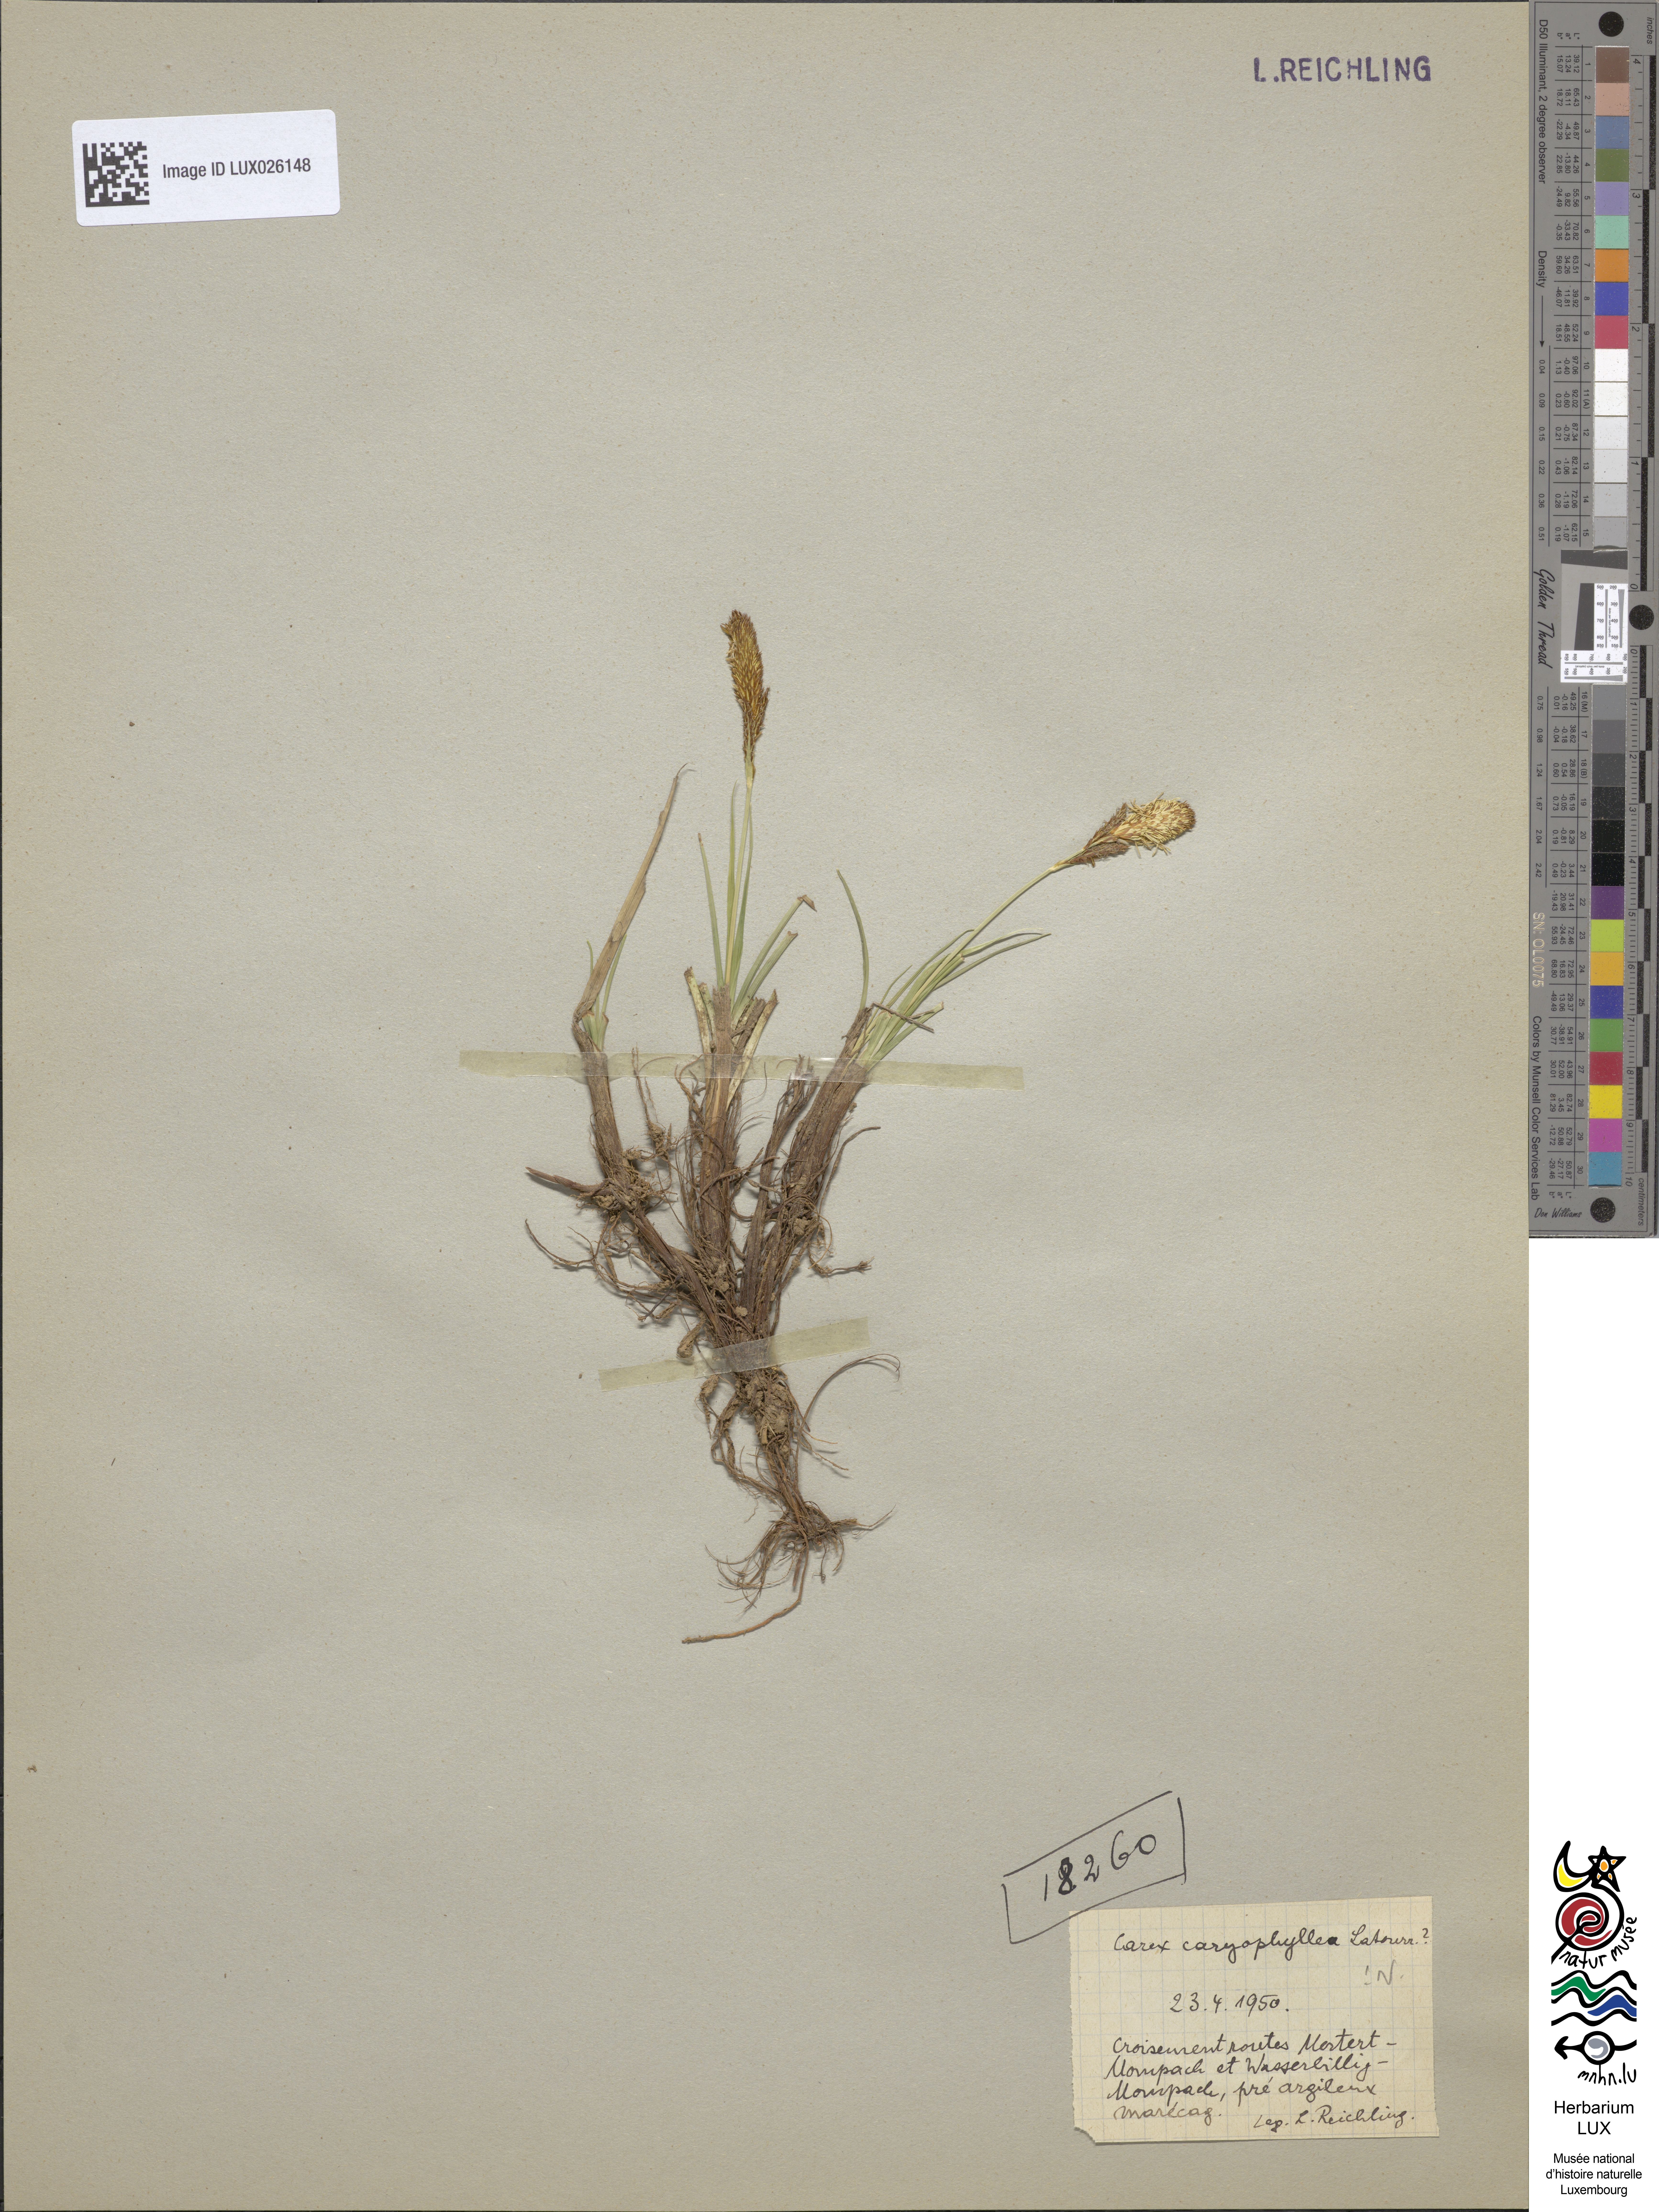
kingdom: Plantae
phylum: Tracheophyta
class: Liliopsida
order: Poales
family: Cyperaceae
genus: Carex
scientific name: Carex caryophyllea
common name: Spring sedge
